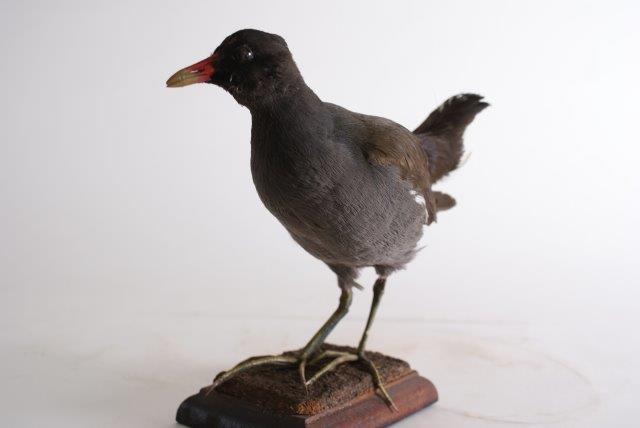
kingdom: Animalia
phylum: Chordata
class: Aves
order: Gruiformes
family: Rallidae
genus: Gallinula
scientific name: Gallinula chloropus
